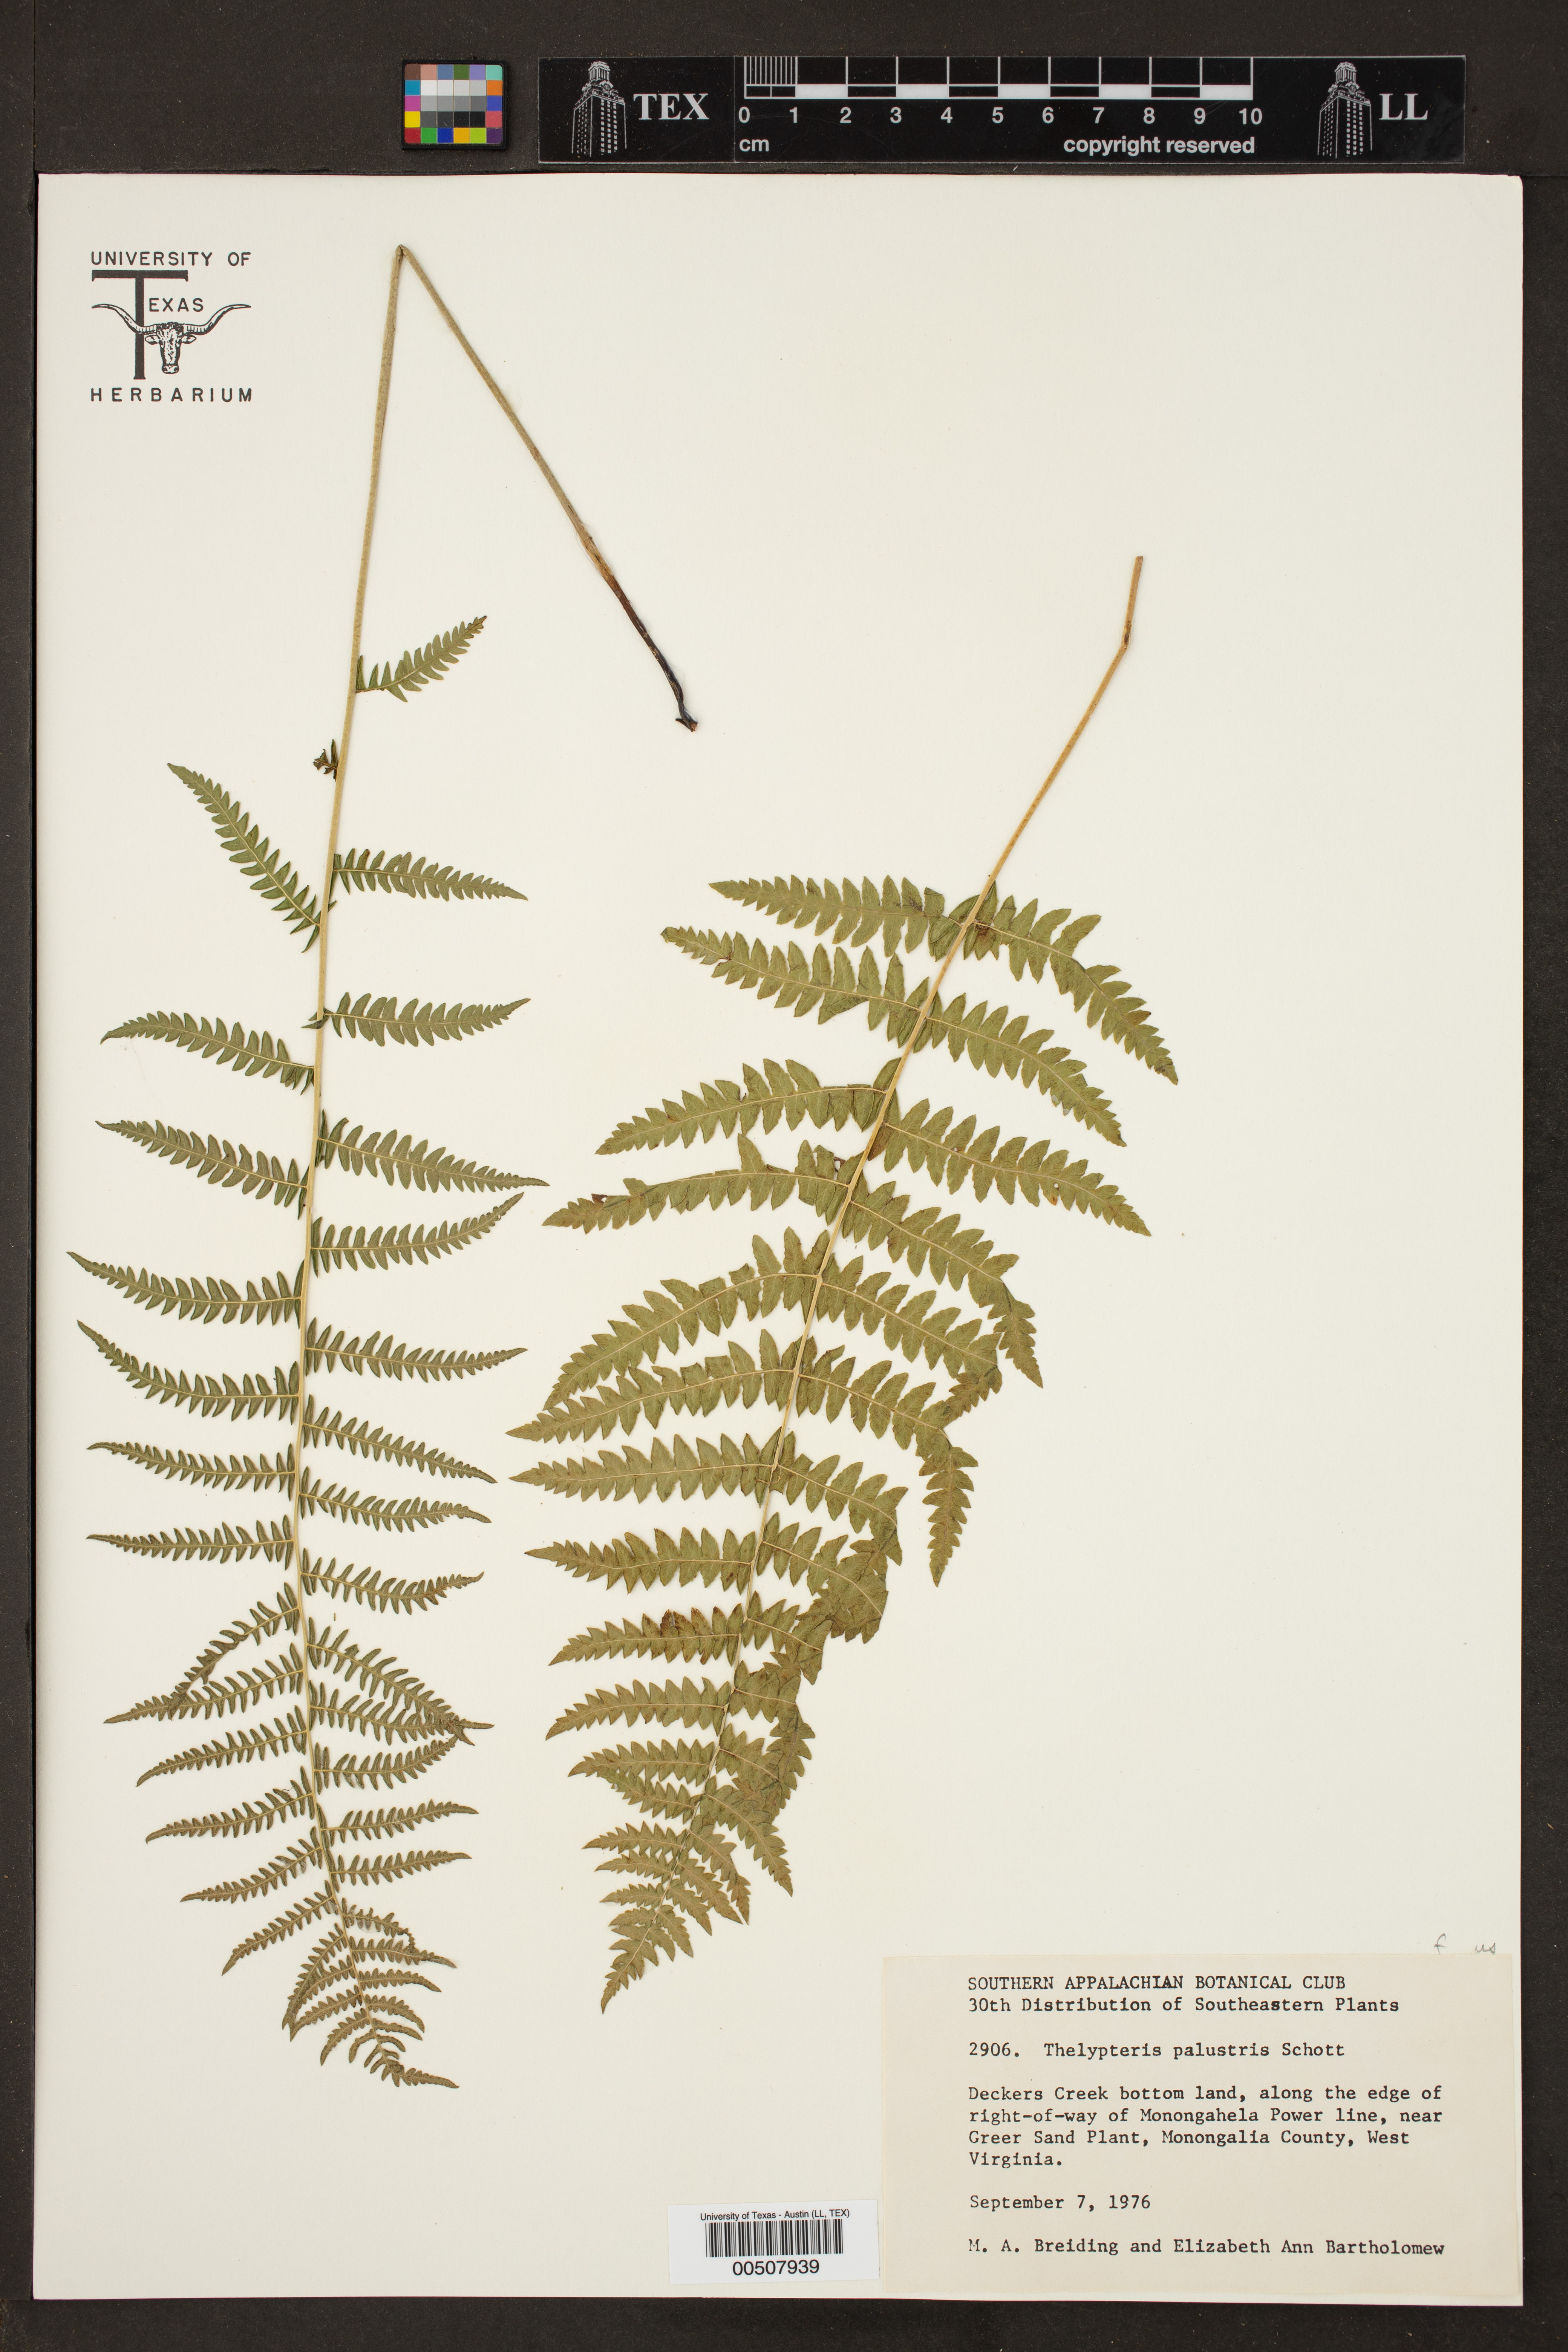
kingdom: Plantae
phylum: Tracheophyta
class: Polypodiopsida
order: Polypodiales
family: Thelypteridaceae
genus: Thelypteris
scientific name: Thelypteris palustris
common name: Marsh fern
